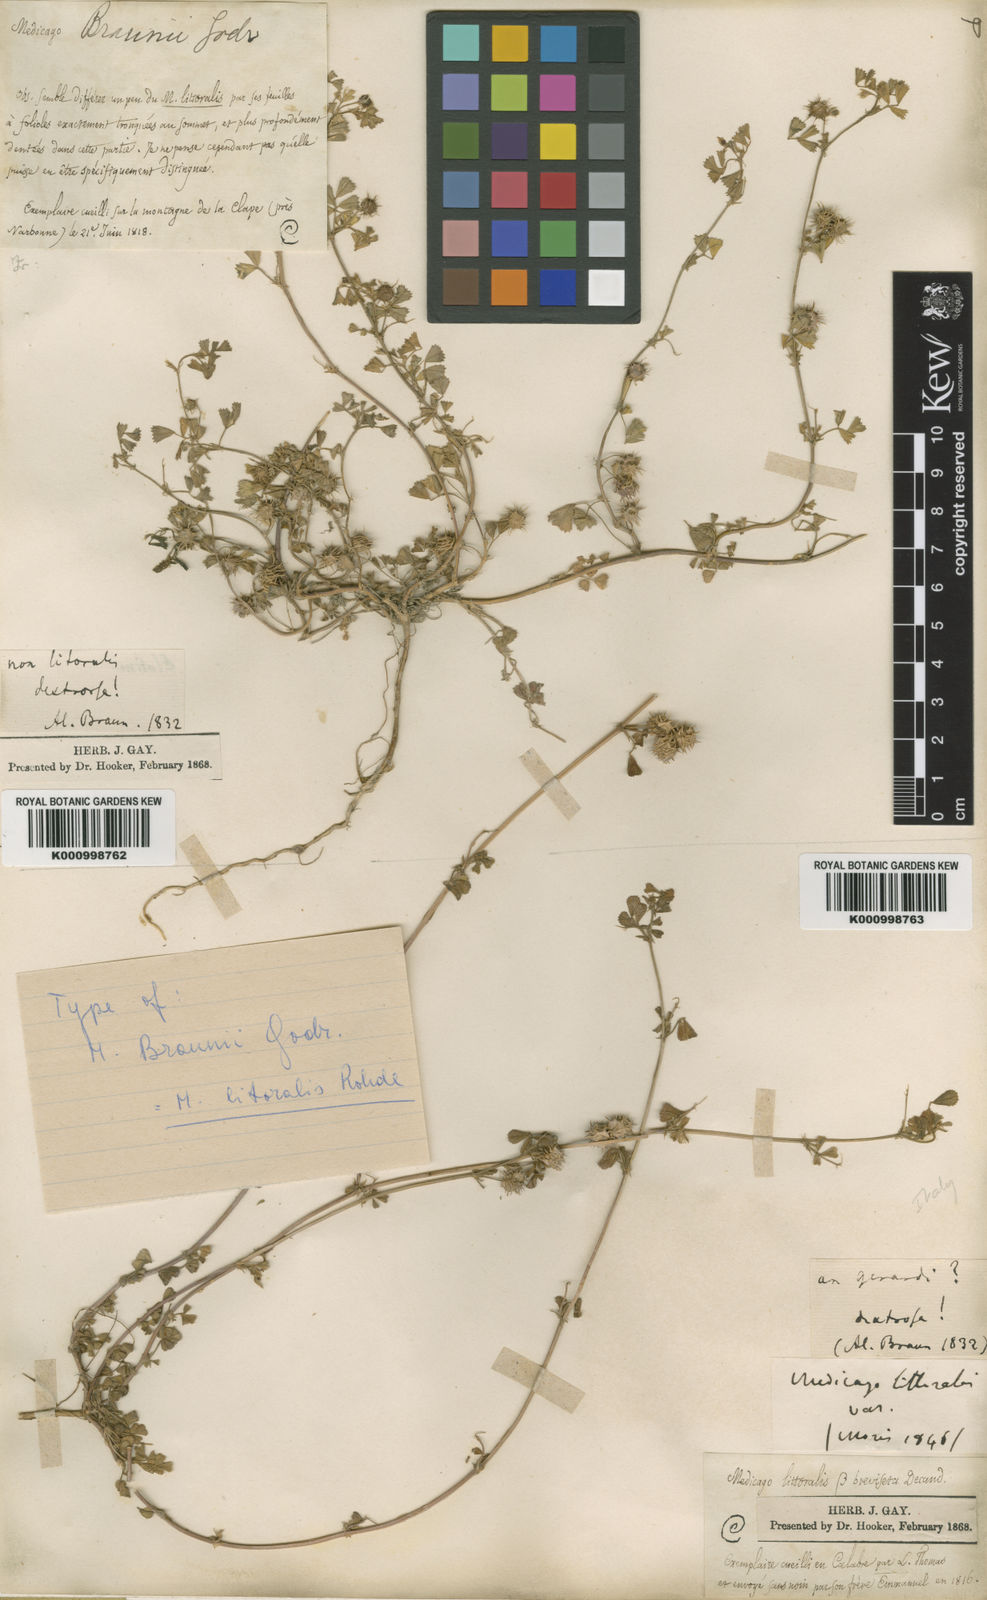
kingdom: Plantae
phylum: Tracheophyta
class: Magnoliopsida
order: Fabales
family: Fabaceae
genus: Medicago
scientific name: Medicago littoralis
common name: Shore medick
